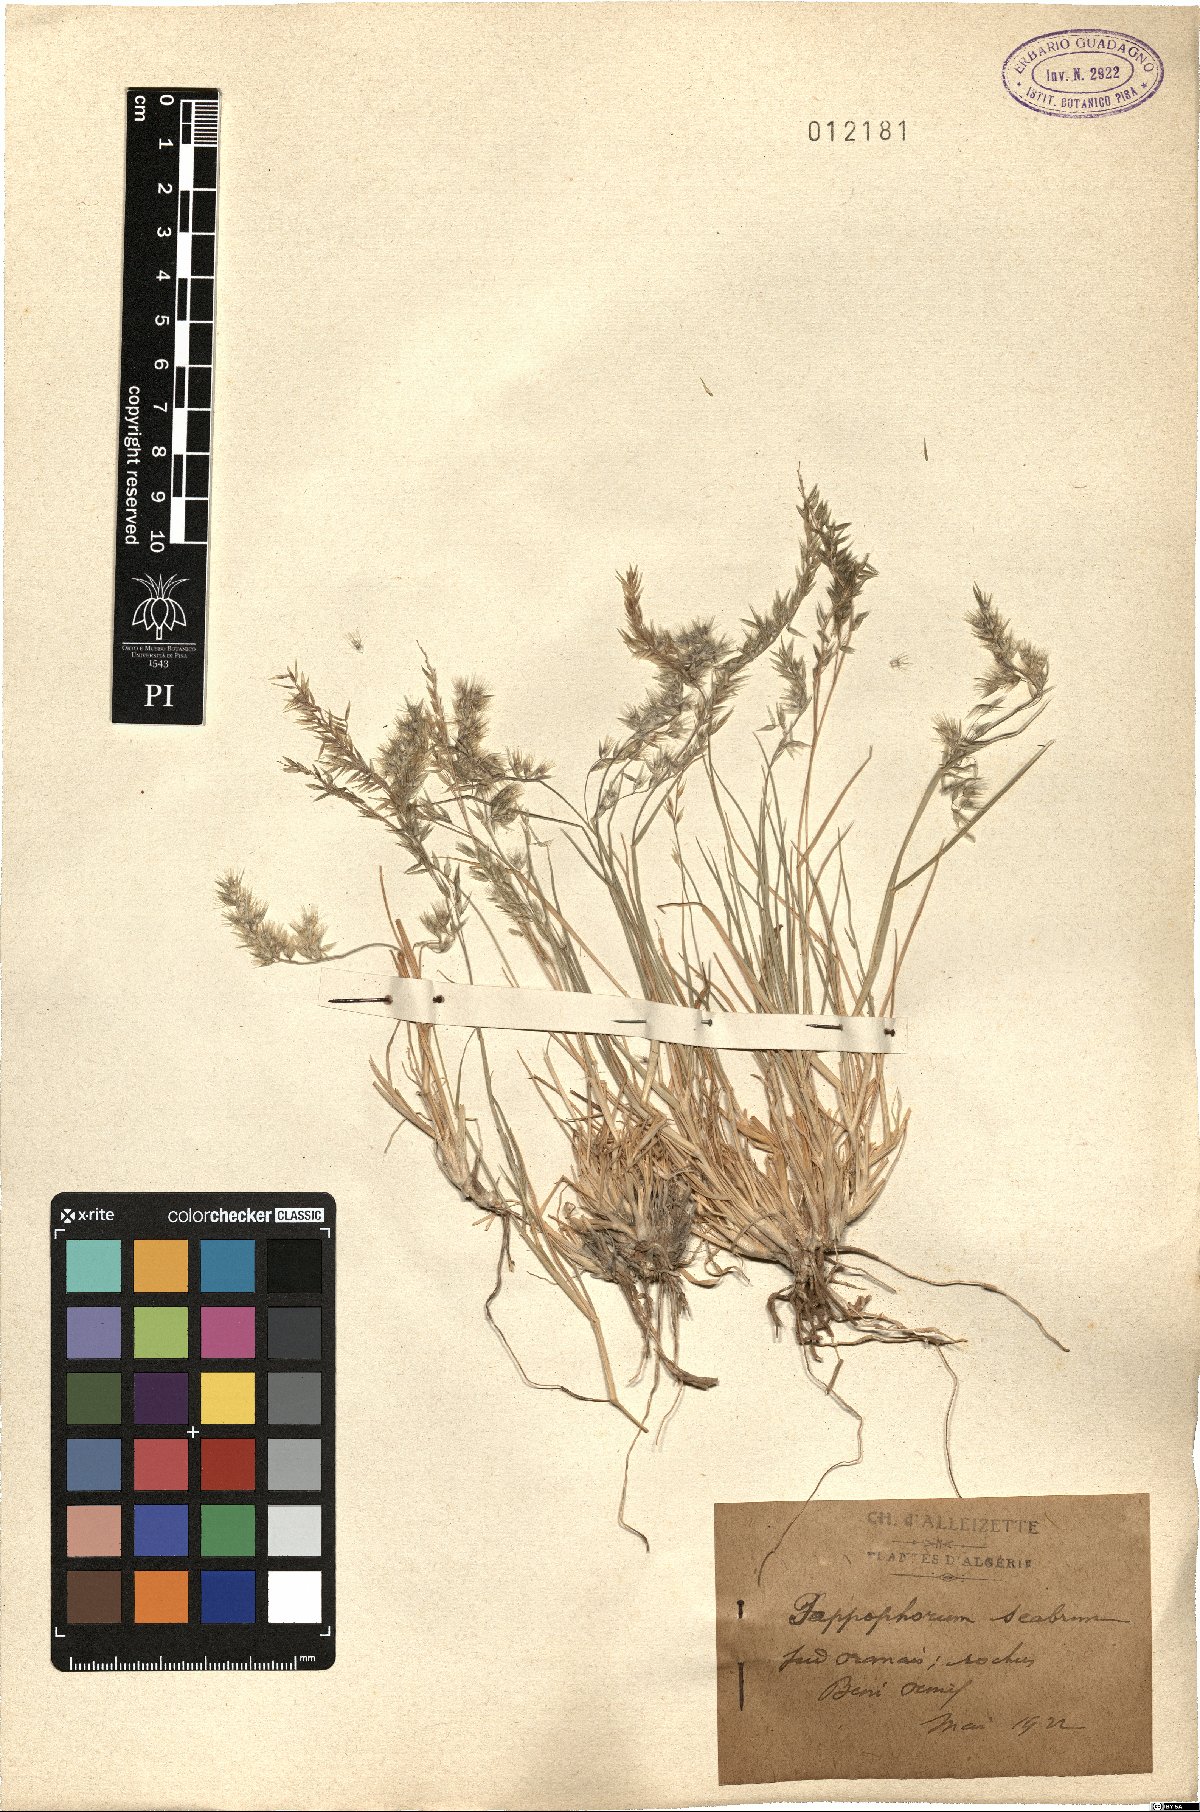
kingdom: Plantae
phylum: Tracheophyta
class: Liliopsida
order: Poales
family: Poaceae
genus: Enneapogon
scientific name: Enneapogon scaber
